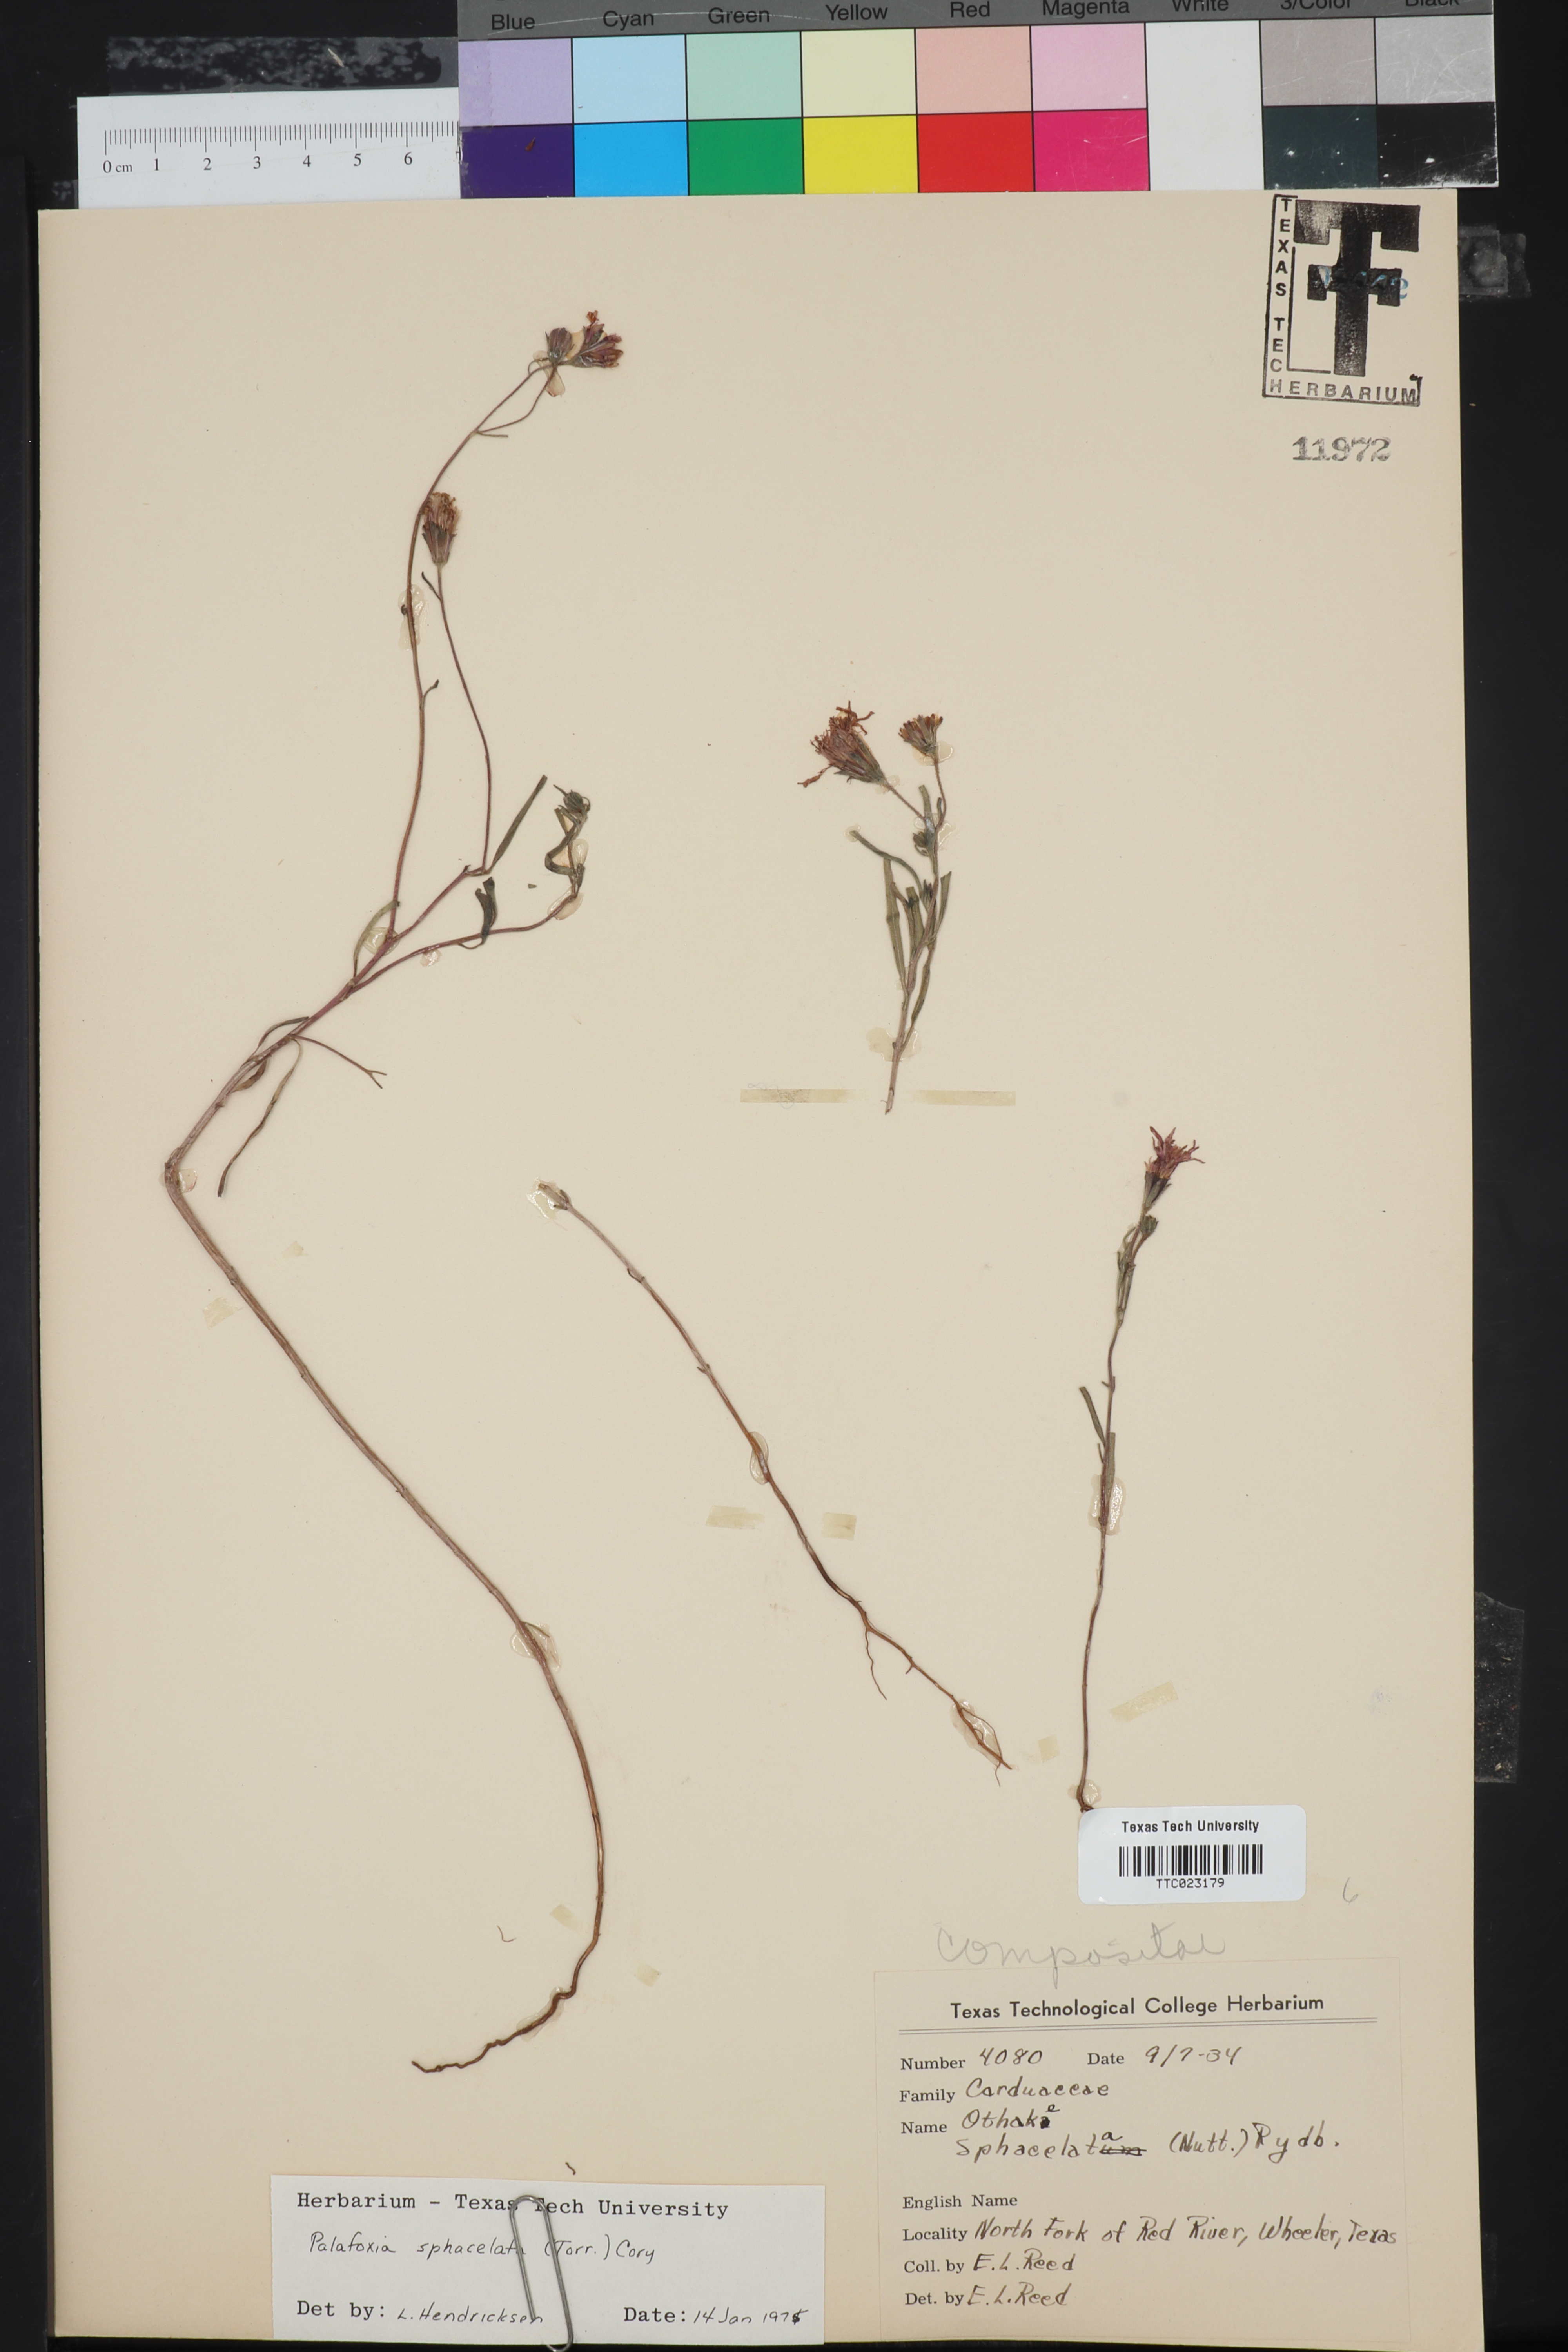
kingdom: Plantae
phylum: Tracheophyta
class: Magnoliopsida
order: Asterales
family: Asteraceae
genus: Palafoxia
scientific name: Palafoxia sphacelata
